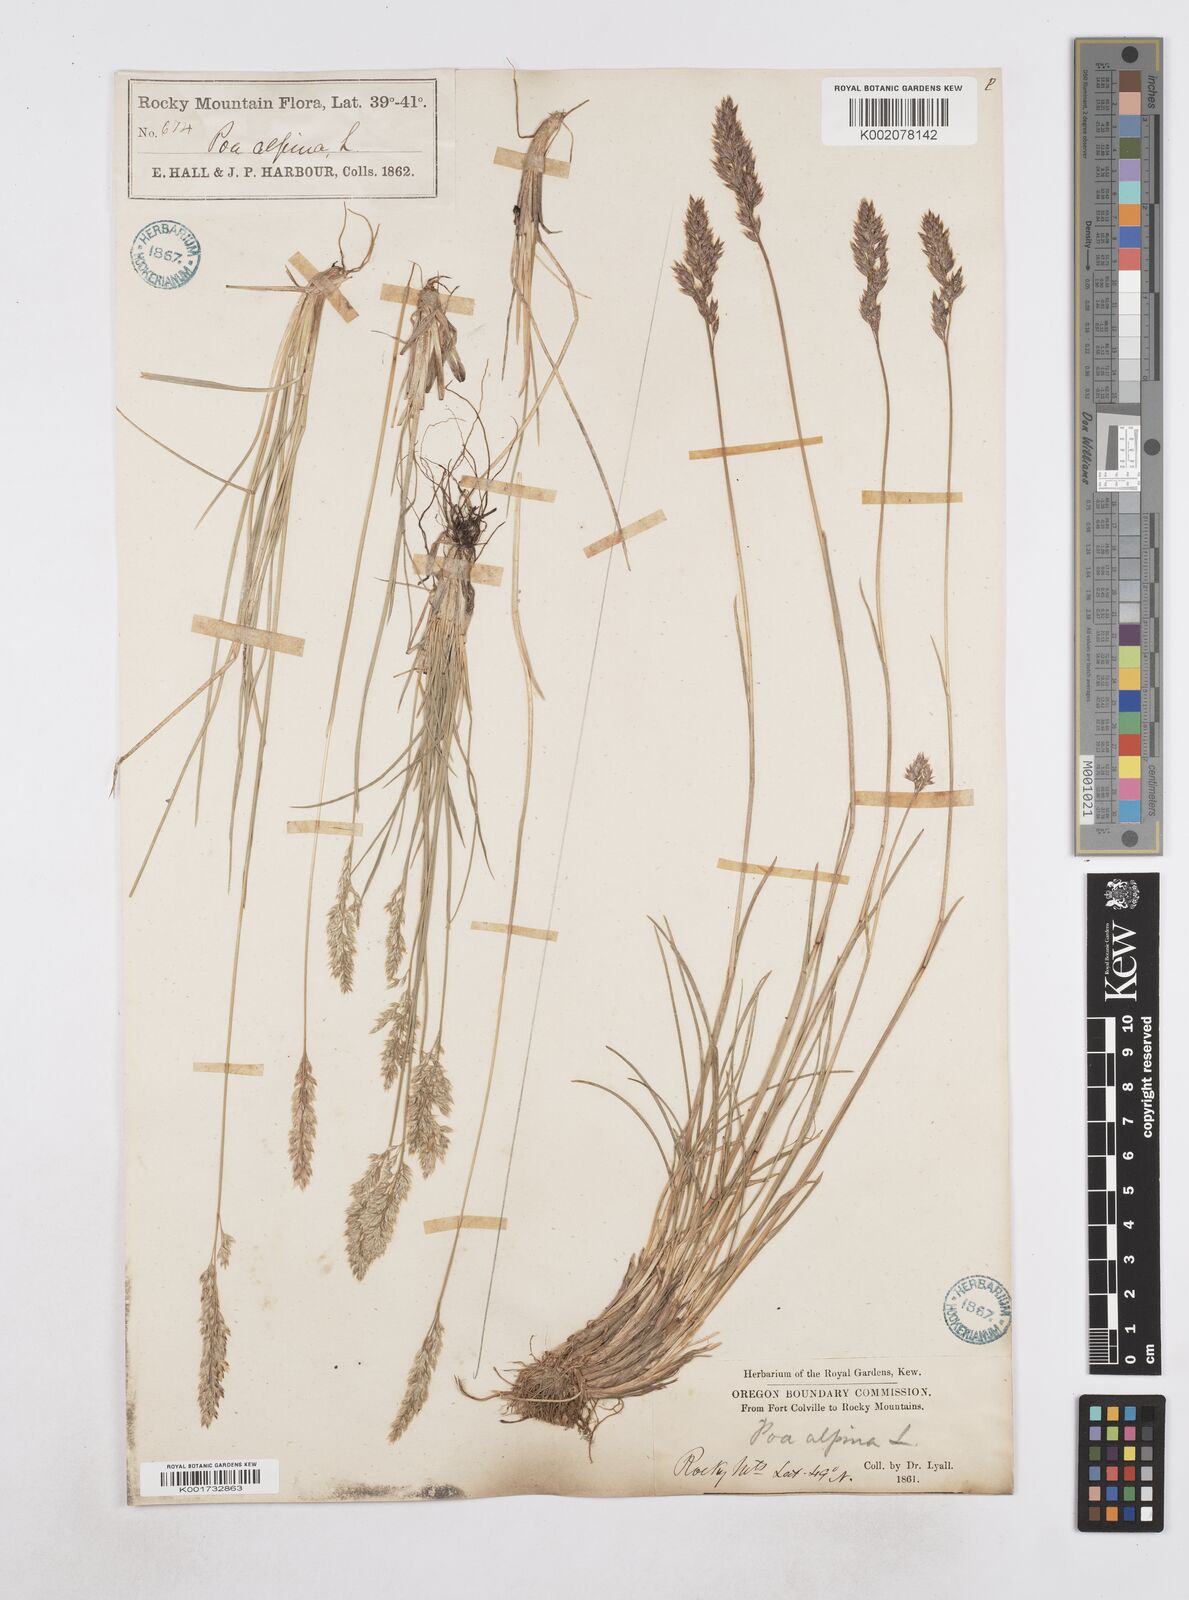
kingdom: Plantae
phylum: Tracheophyta
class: Liliopsida
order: Poales
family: Poaceae
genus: Poa
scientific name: Poa
